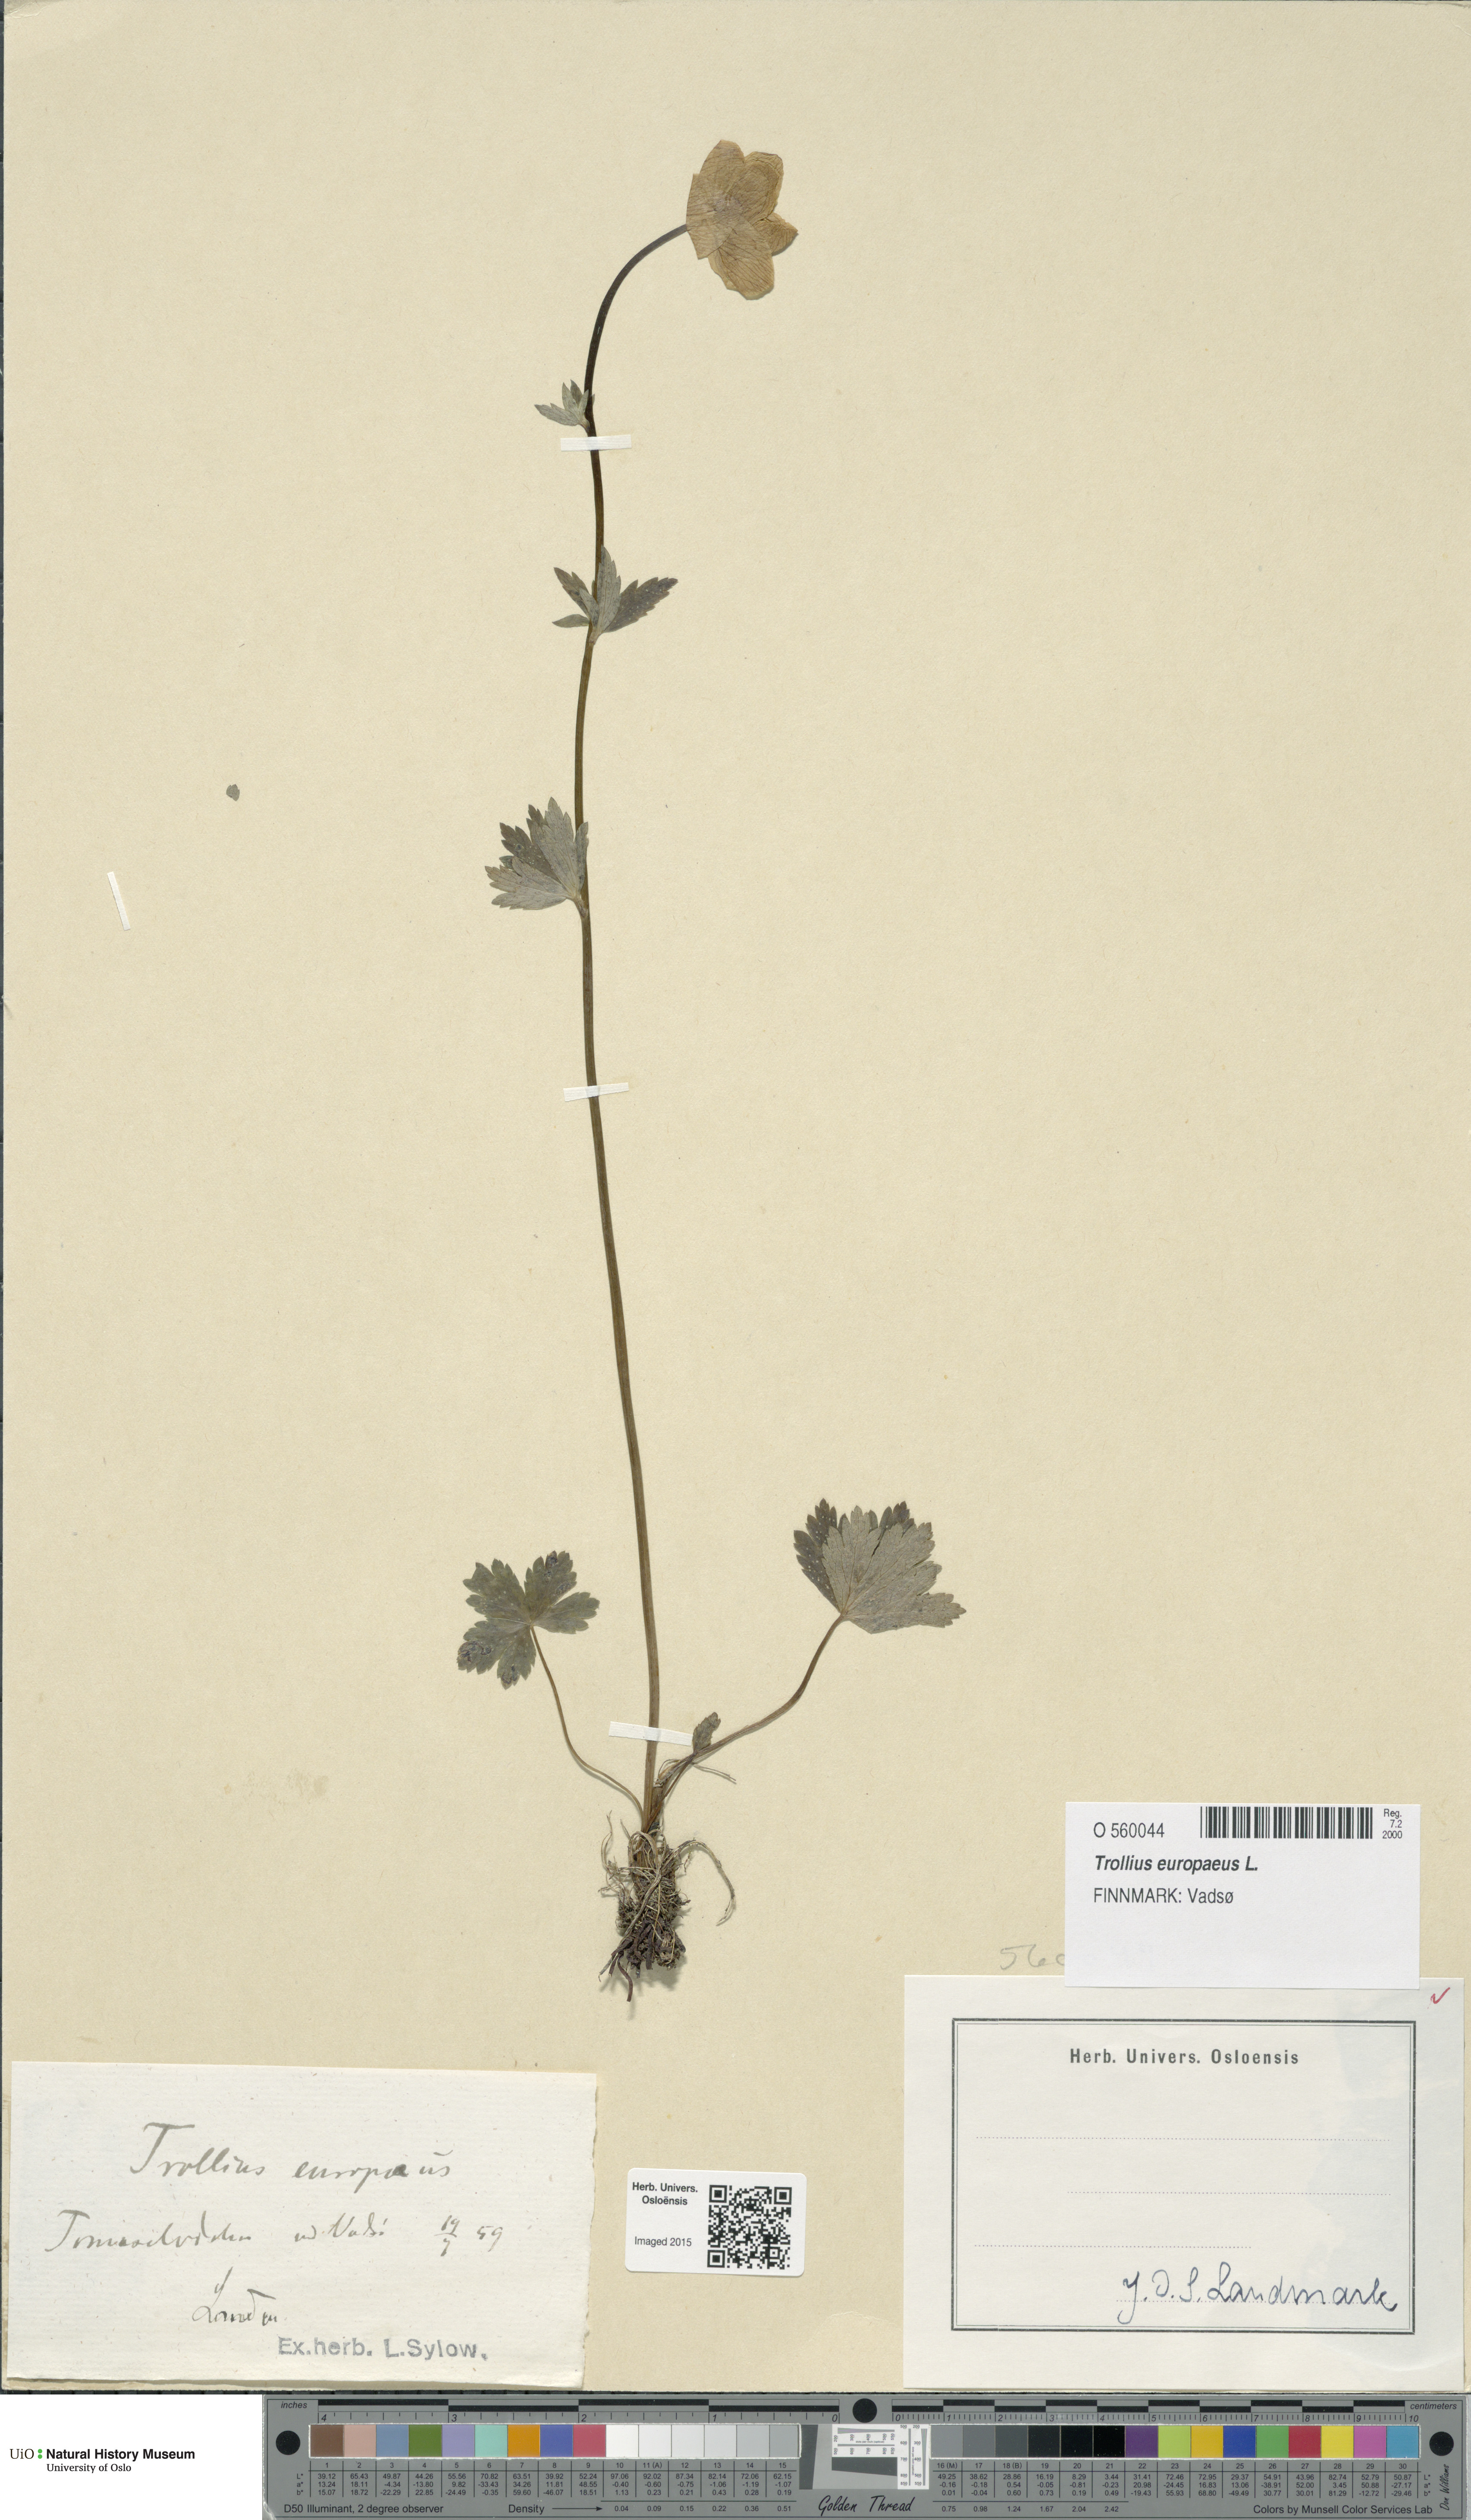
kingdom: Plantae
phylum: Tracheophyta
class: Magnoliopsida
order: Ranunculales
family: Ranunculaceae
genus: Trollius
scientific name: Trollius europaeus
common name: European globeflower
